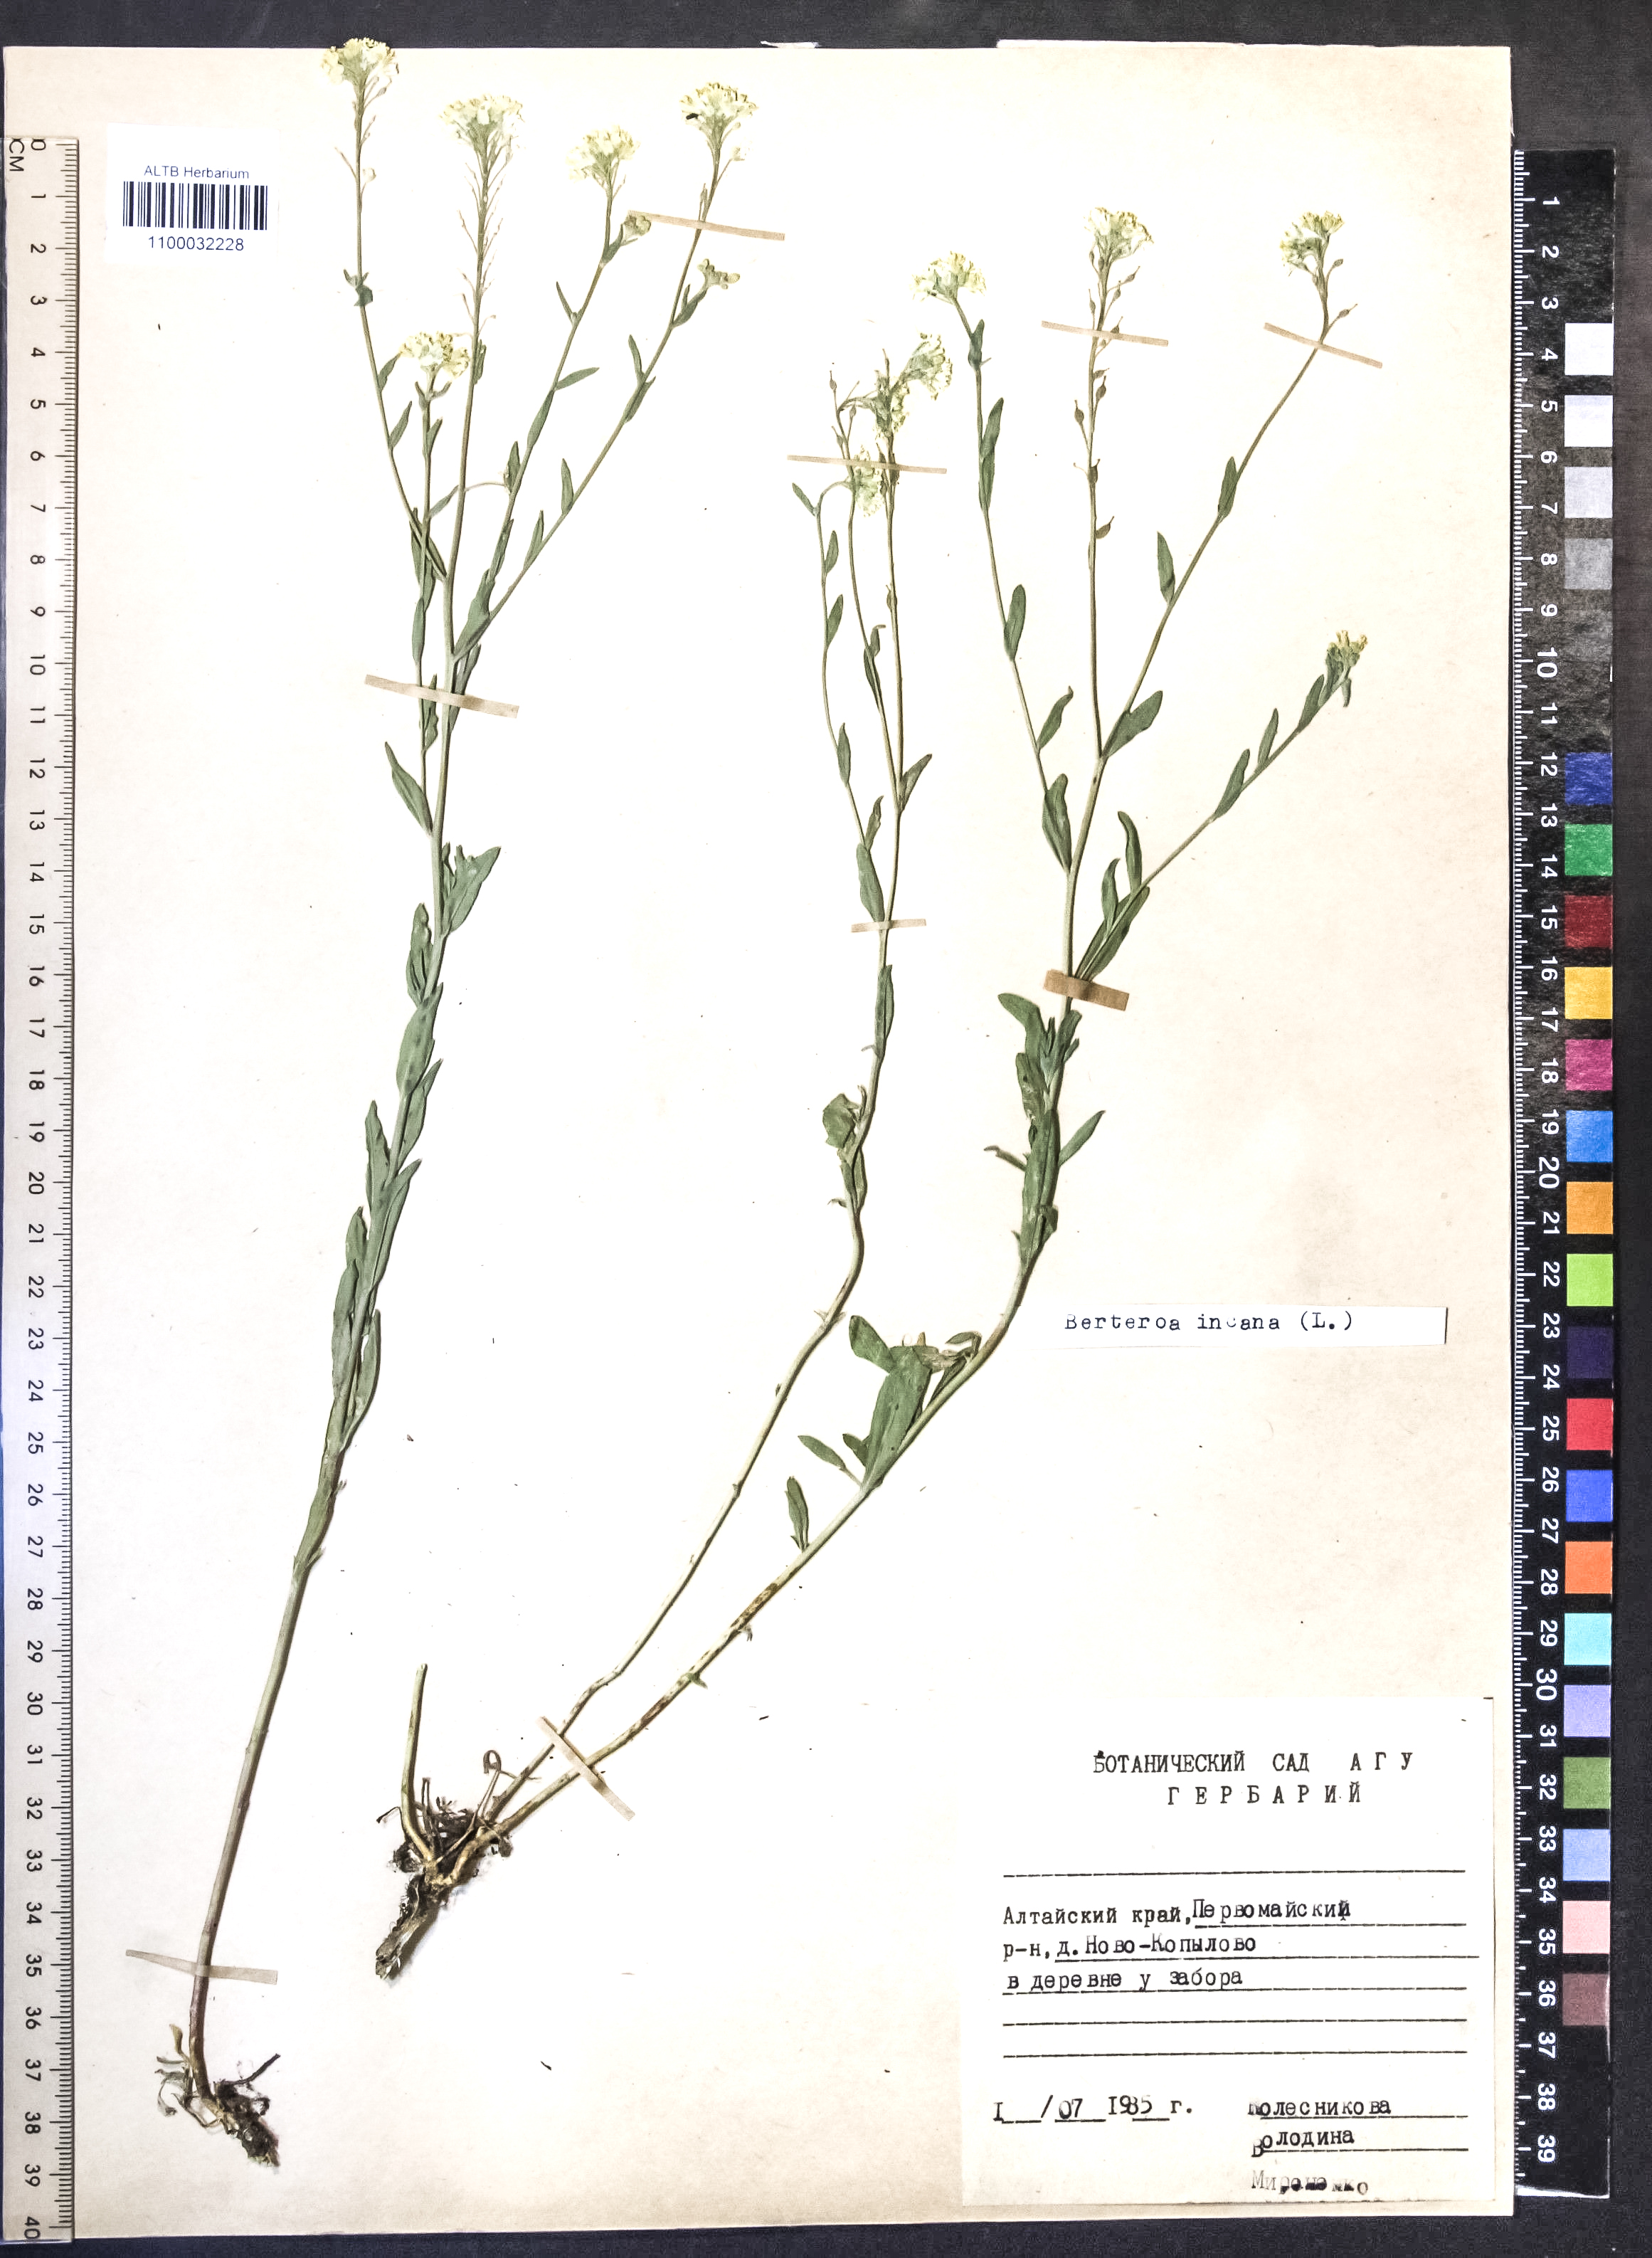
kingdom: Plantae
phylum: Tracheophyta
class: Magnoliopsida
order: Brassicales
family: Brassicaceae
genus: Berteroa
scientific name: Berteroa incana
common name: Hoary alison
